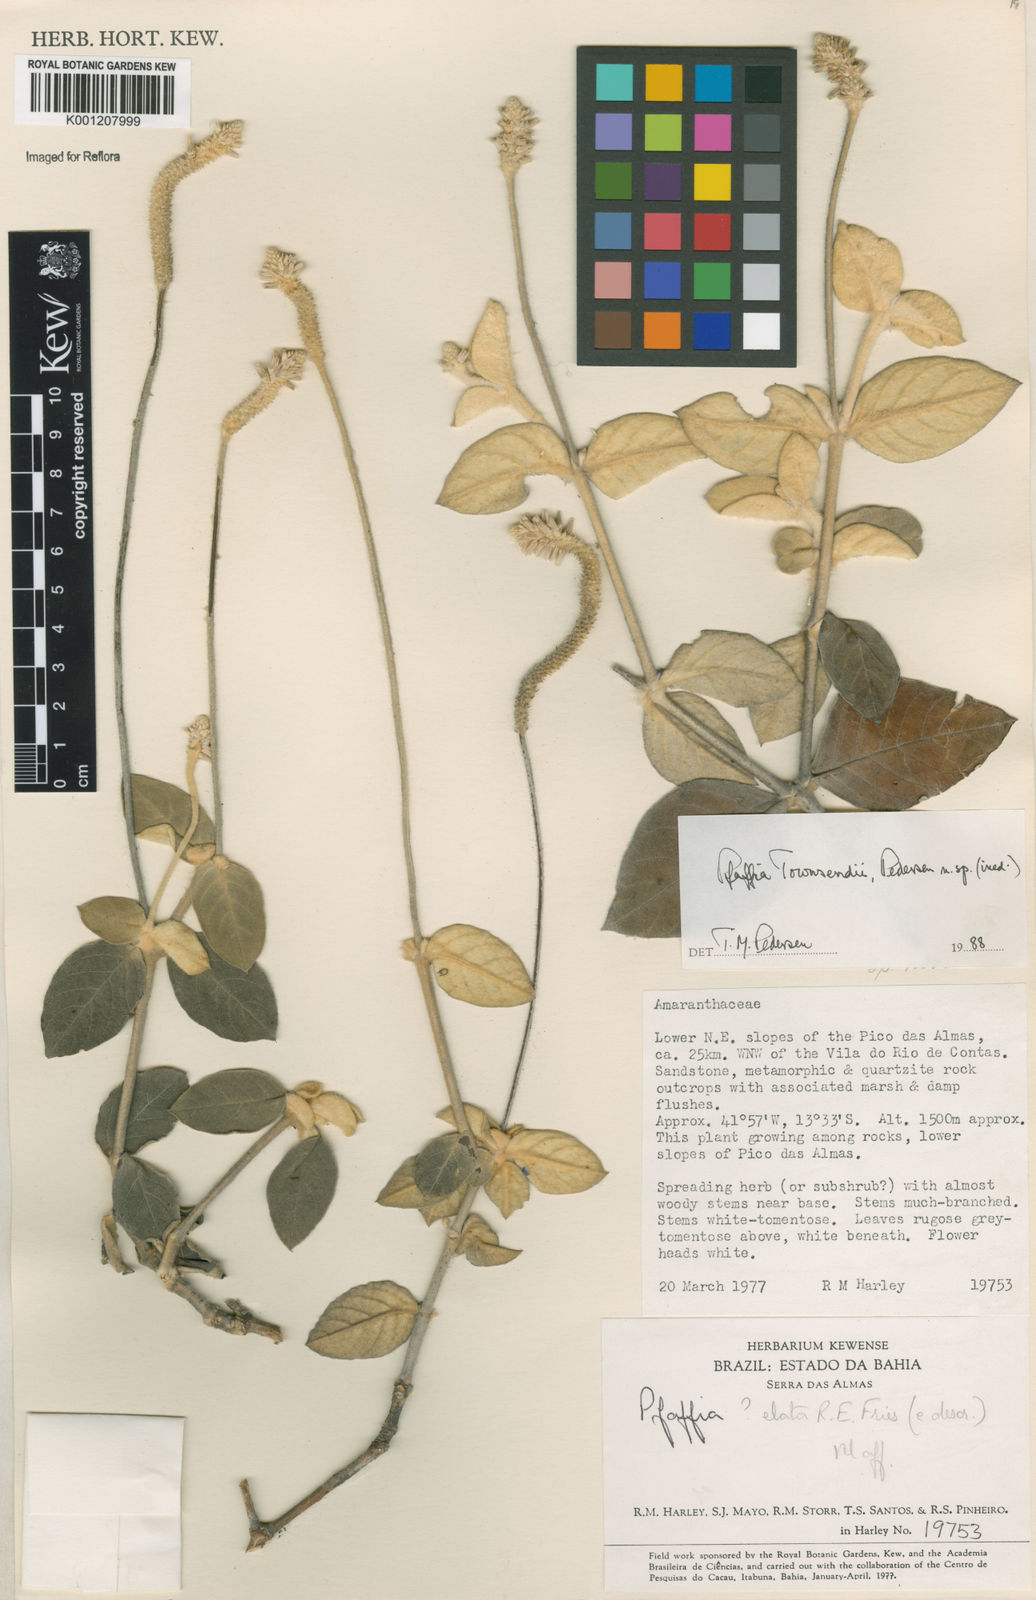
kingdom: Plantae
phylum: Tracheophyta
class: Magnoliopsida
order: Caryophyllales
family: Amaranthaceae
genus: Pfaffia
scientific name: Pfaffia townsendii
